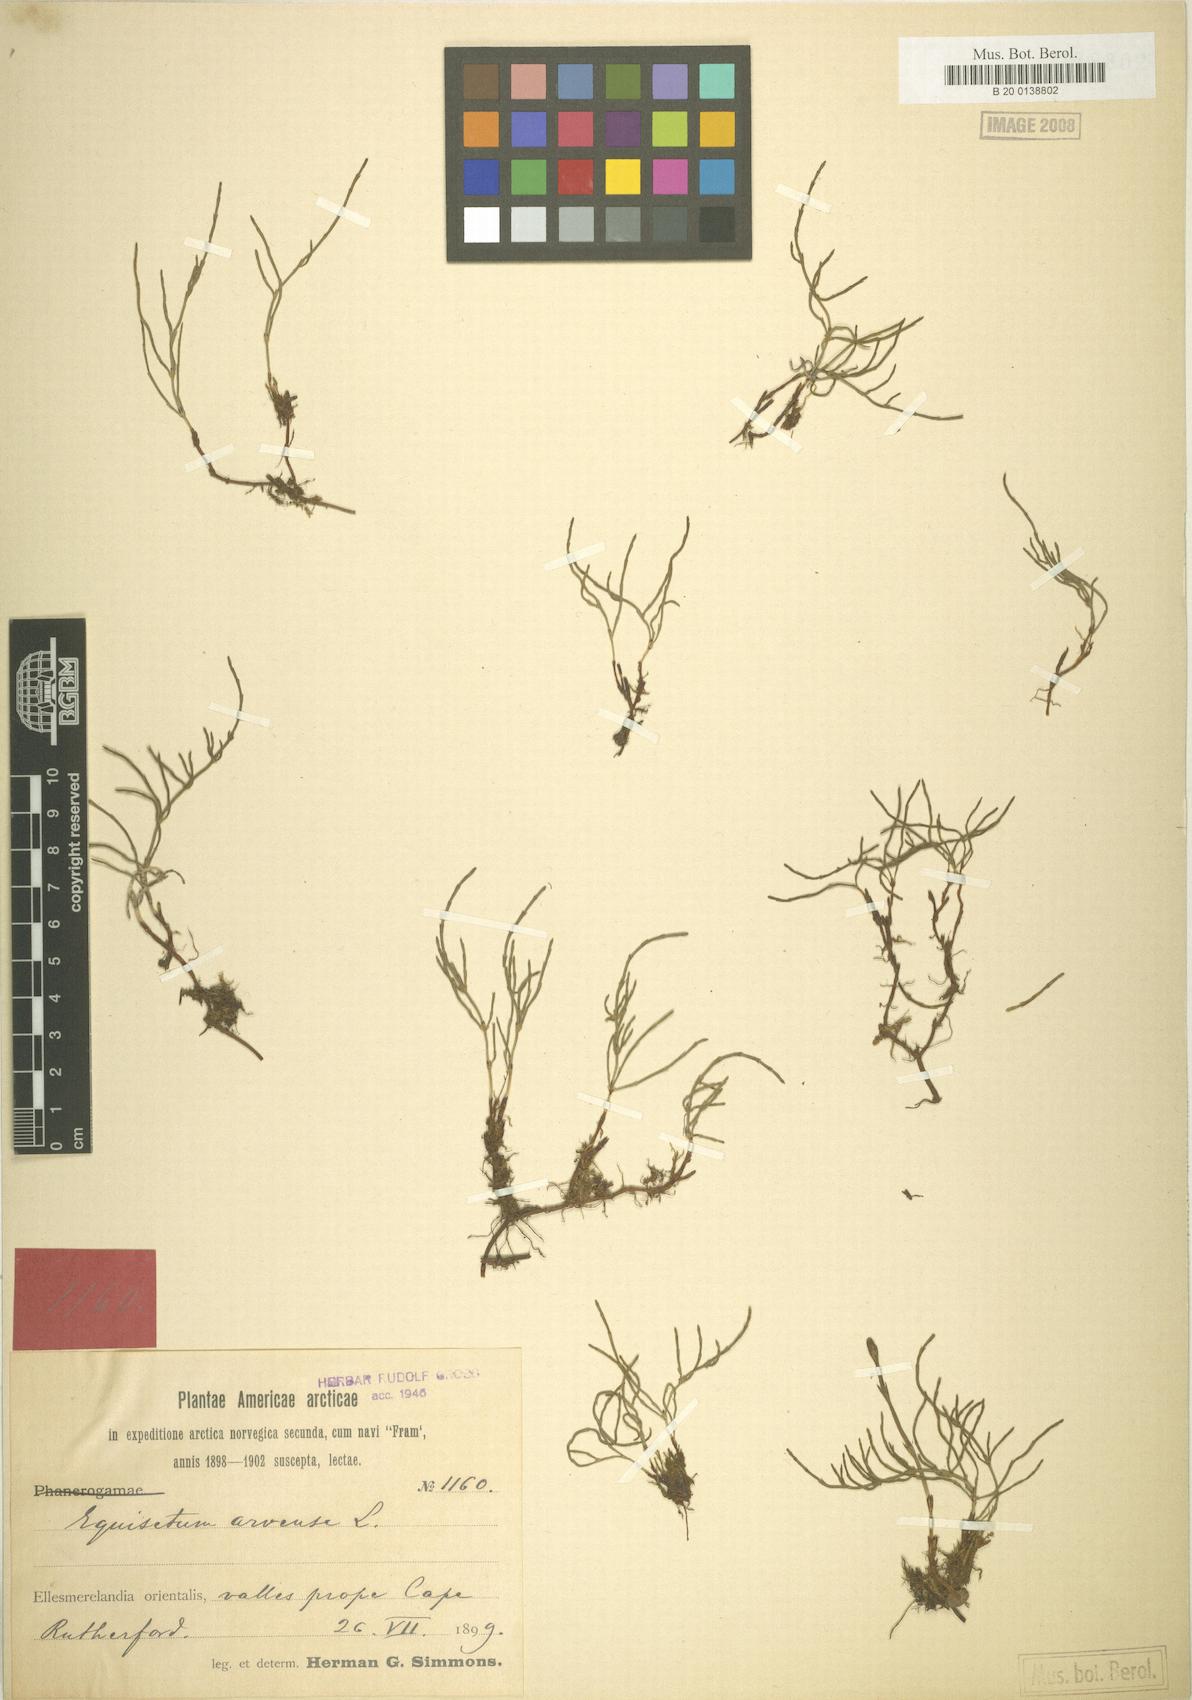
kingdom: Plantae
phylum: Tracheophyta
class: Polypodiopsida
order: Equisetales
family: Equisetaceae
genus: Equisetum
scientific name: Equisetum arvense
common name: Field horsetail
